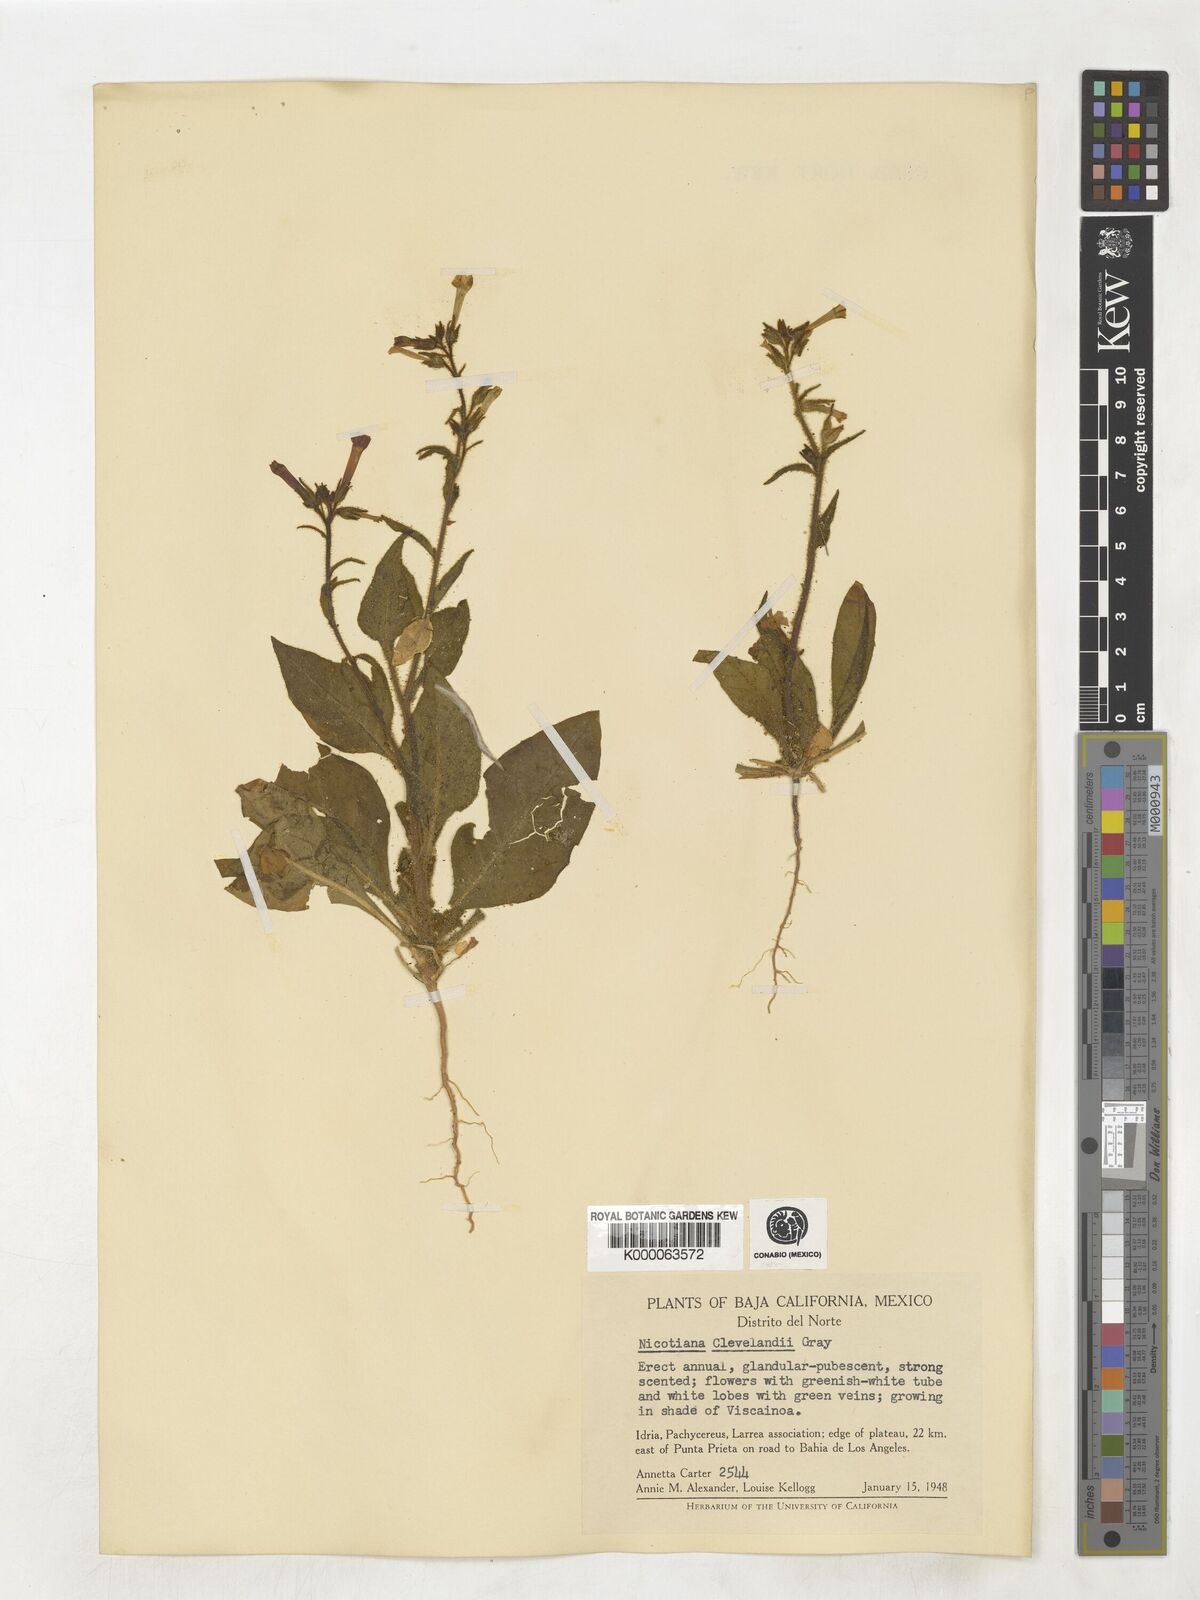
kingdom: Plantae
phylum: Tracheophyta
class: Magnoliopsida
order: Solanales
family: Solanaceae
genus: Nicotiana
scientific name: Nicotiana clevelandii
